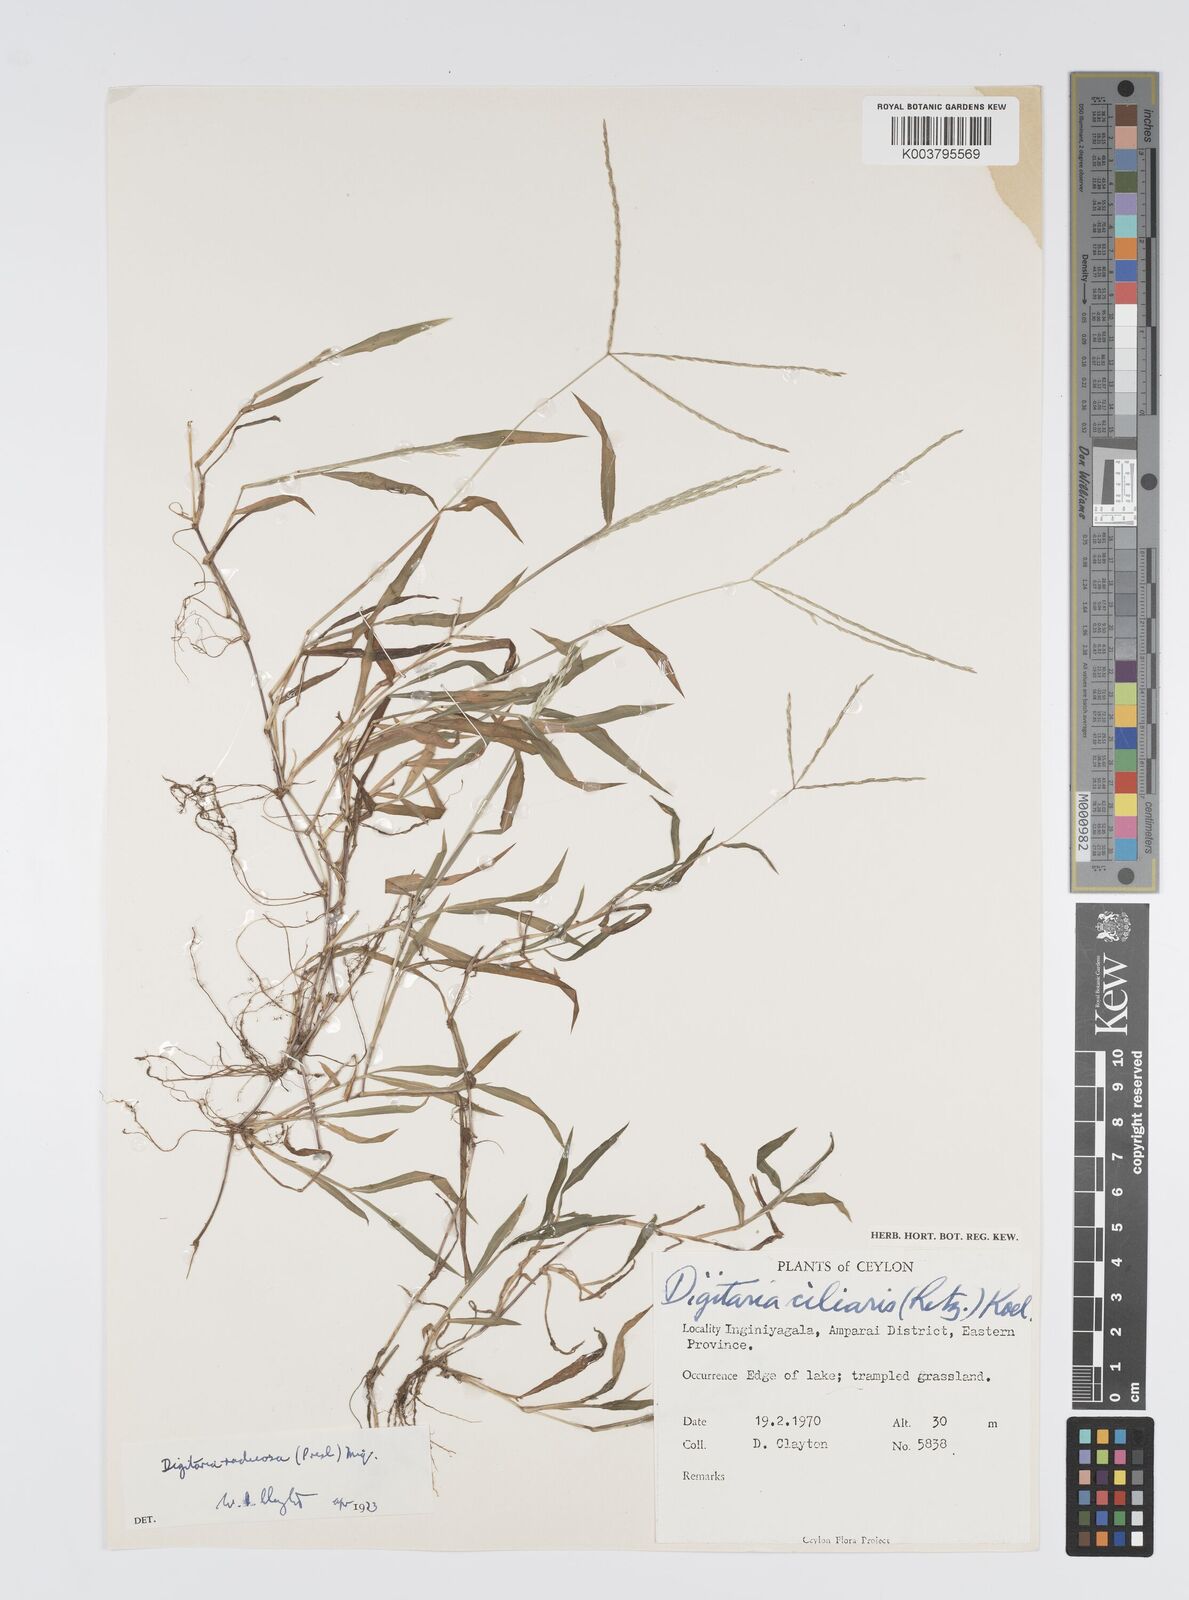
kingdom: Plantae
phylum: Tracheophyta
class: Liliopsida
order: Poales
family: Poaceae
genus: Digitaria
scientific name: Digitaria radicosa
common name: Trailing crabgrass
